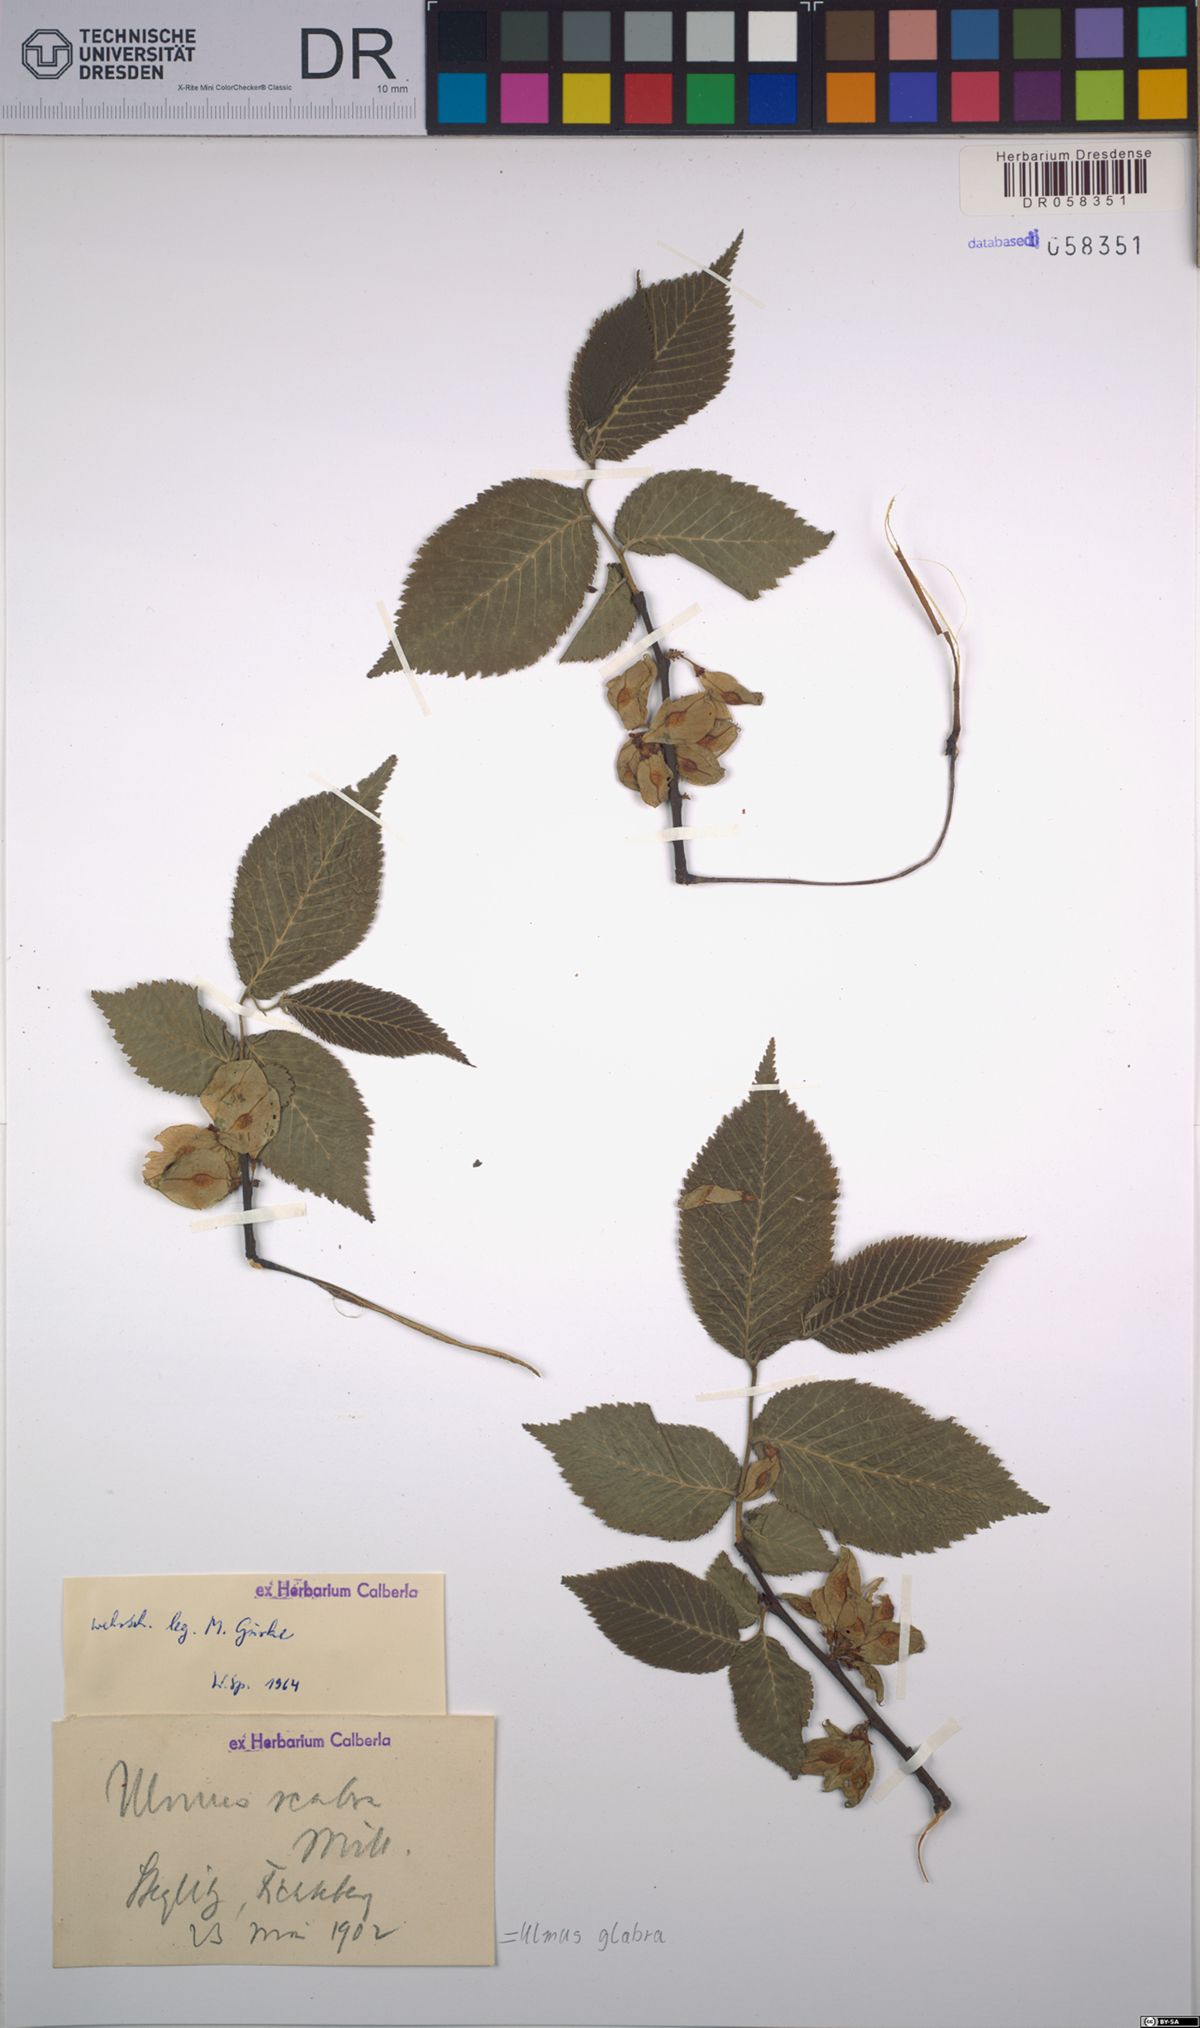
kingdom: Plantae
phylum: Tracheophyta
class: Magnoliopsida
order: Rosales
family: Ulmaceae
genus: Ulmus
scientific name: Ulmus glabra
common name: Wych elm
